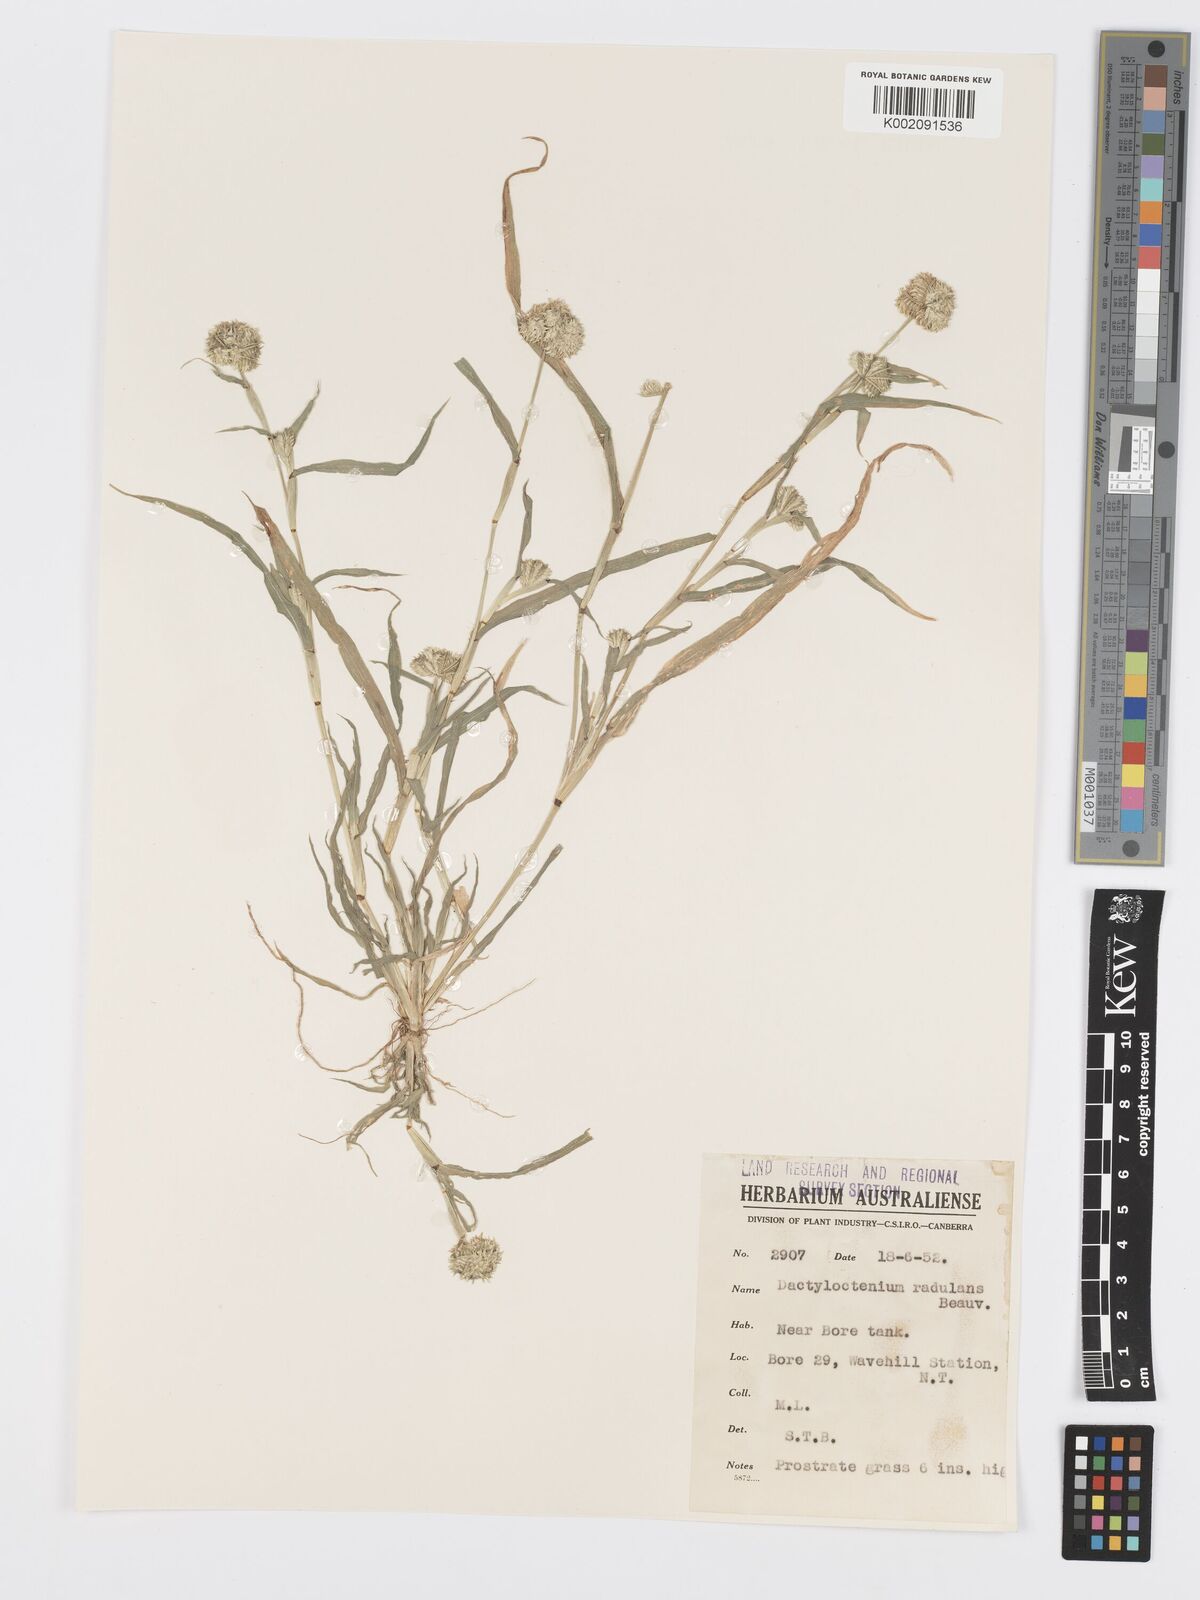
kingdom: Plantae
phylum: Tracheophyta
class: Liliopsida
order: Poales
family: Poaceae
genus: Dactyloctenium
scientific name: Dactyloctenium radulans
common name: Button-grass
